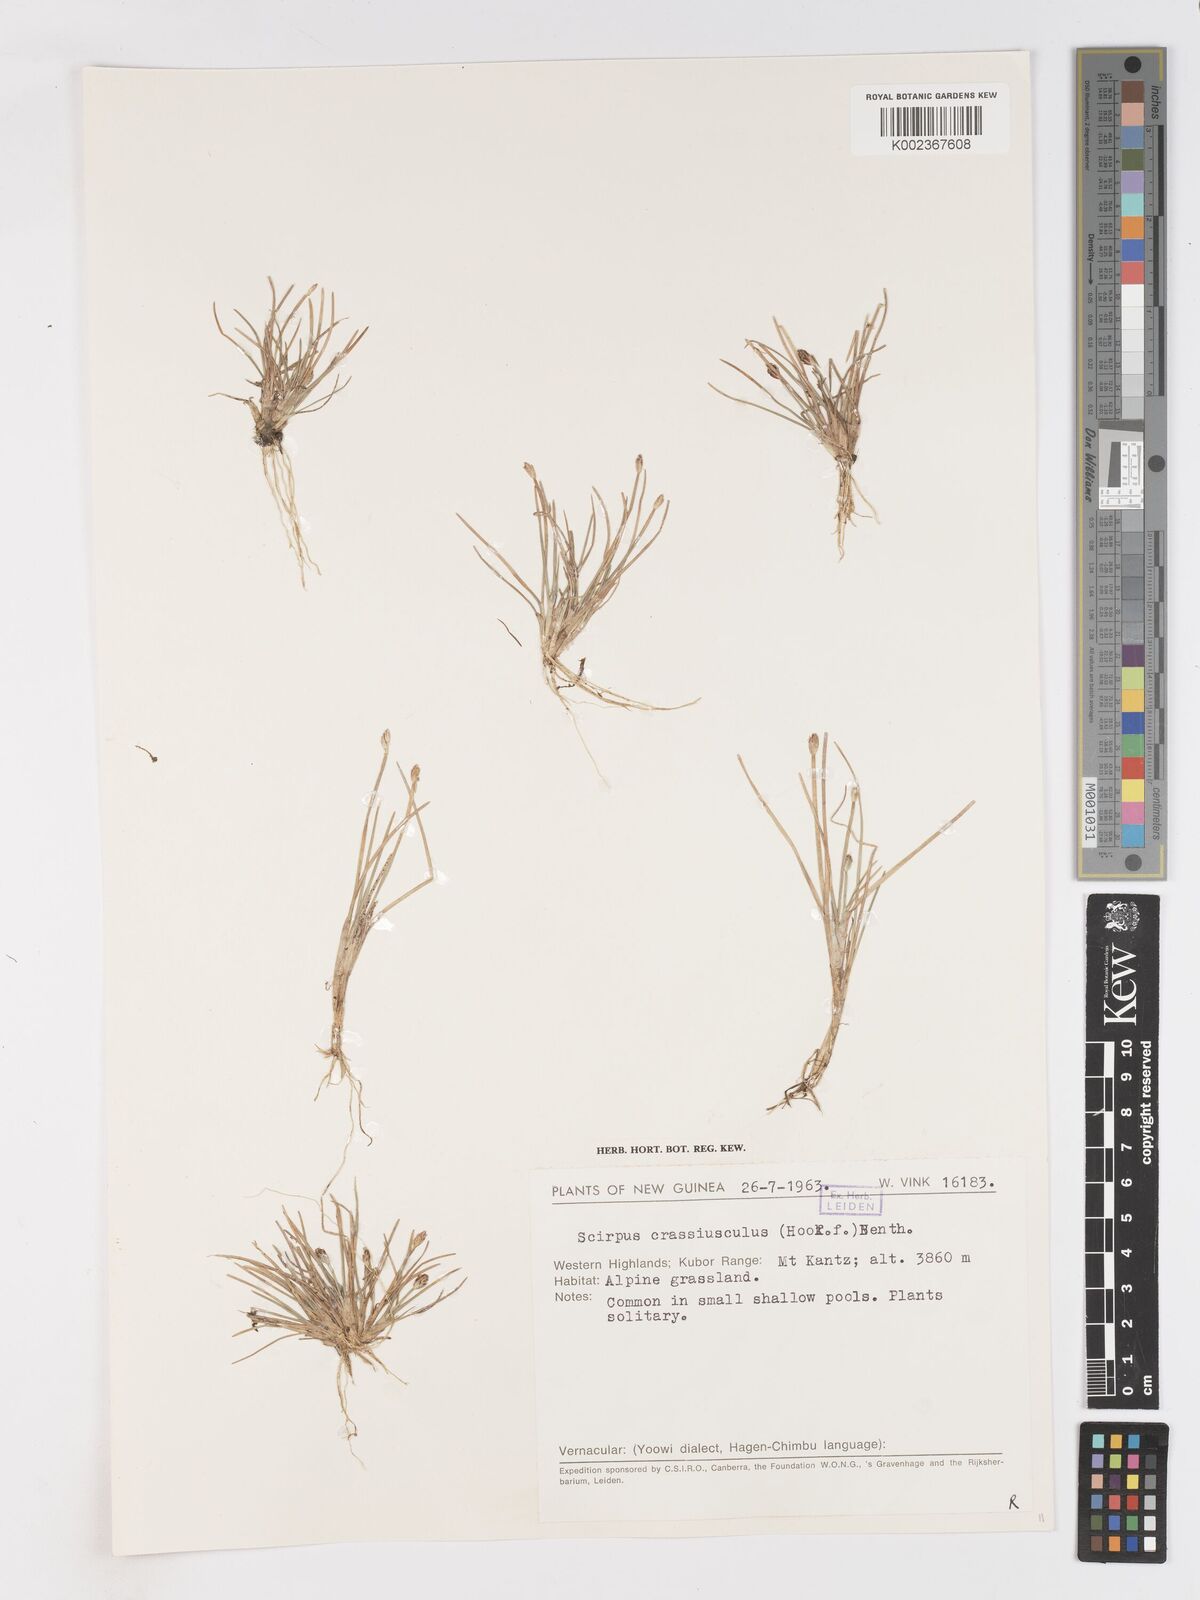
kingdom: Plantae
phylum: Tracheophyta
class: Liliopsida
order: Poales
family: Cyperaceae
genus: Isolepis
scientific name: Isolepis crassiuscula
